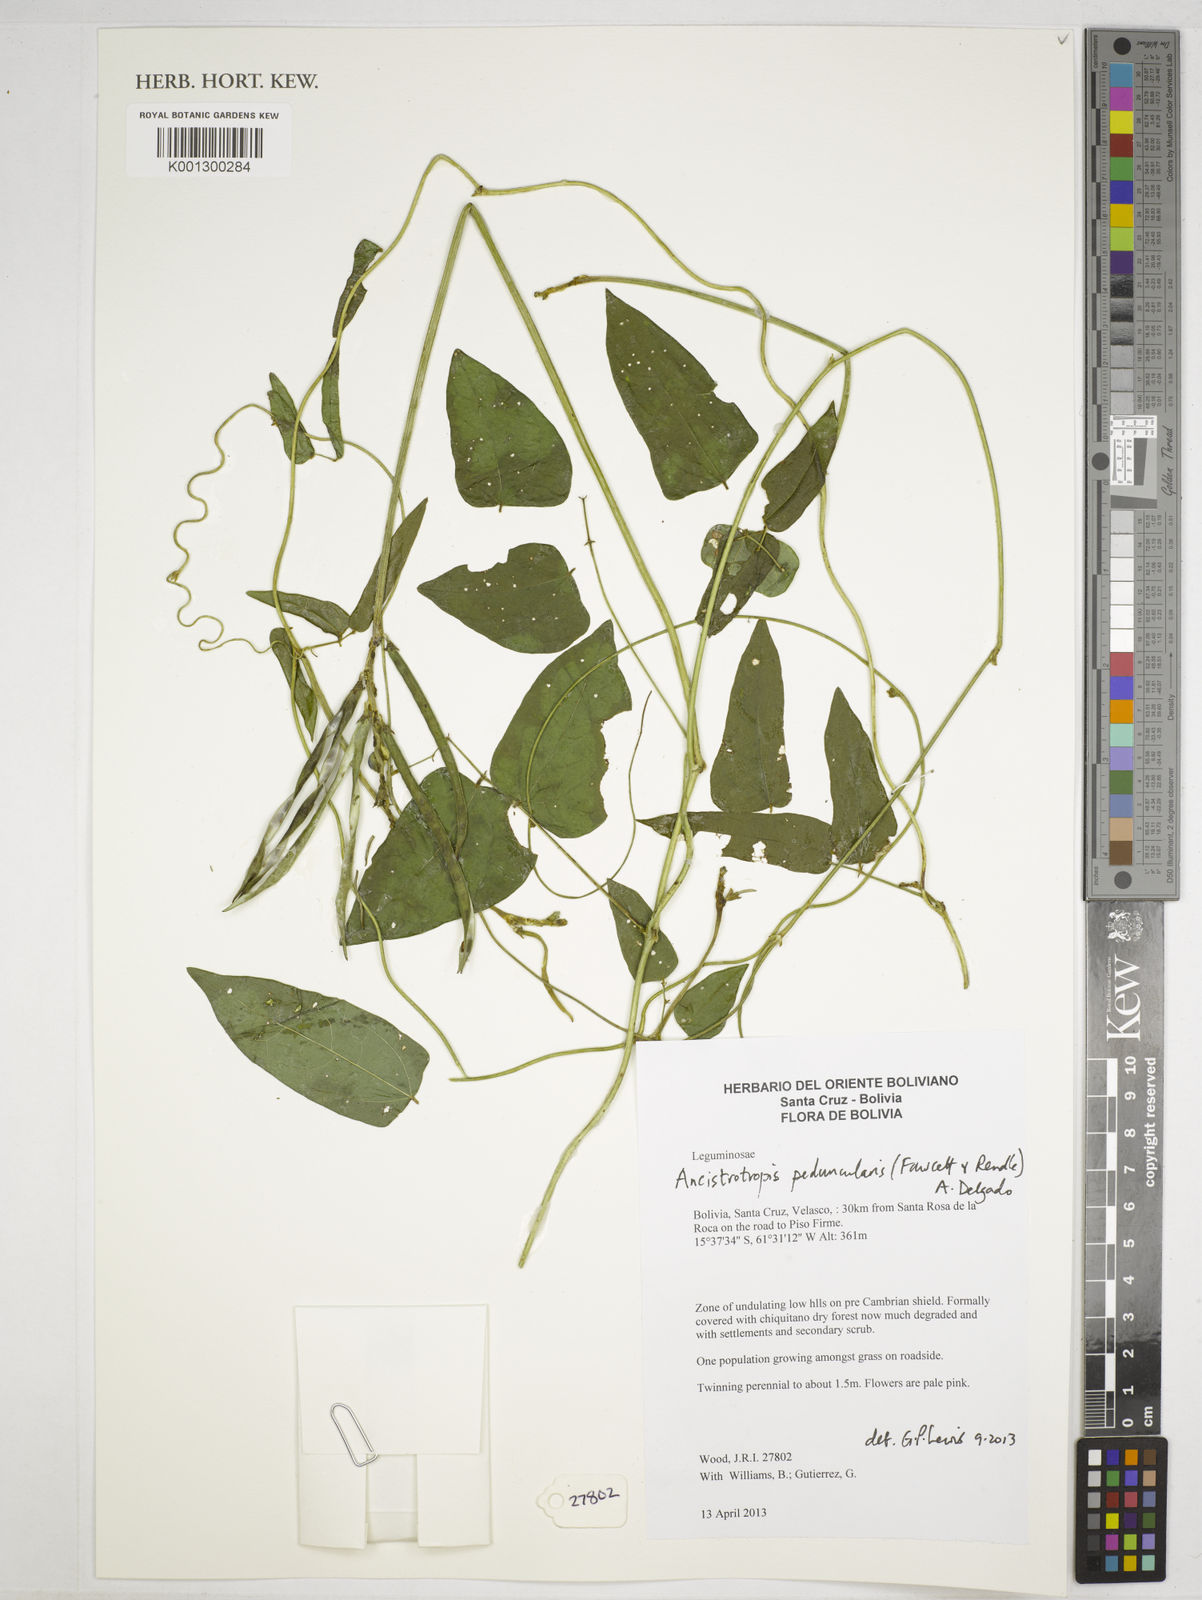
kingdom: Plantae
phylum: Tracheophyta
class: Magnoliopsida
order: Fabales
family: Fabaceae
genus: Ancistrotropis
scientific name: Ancistrotropis peduncularis
